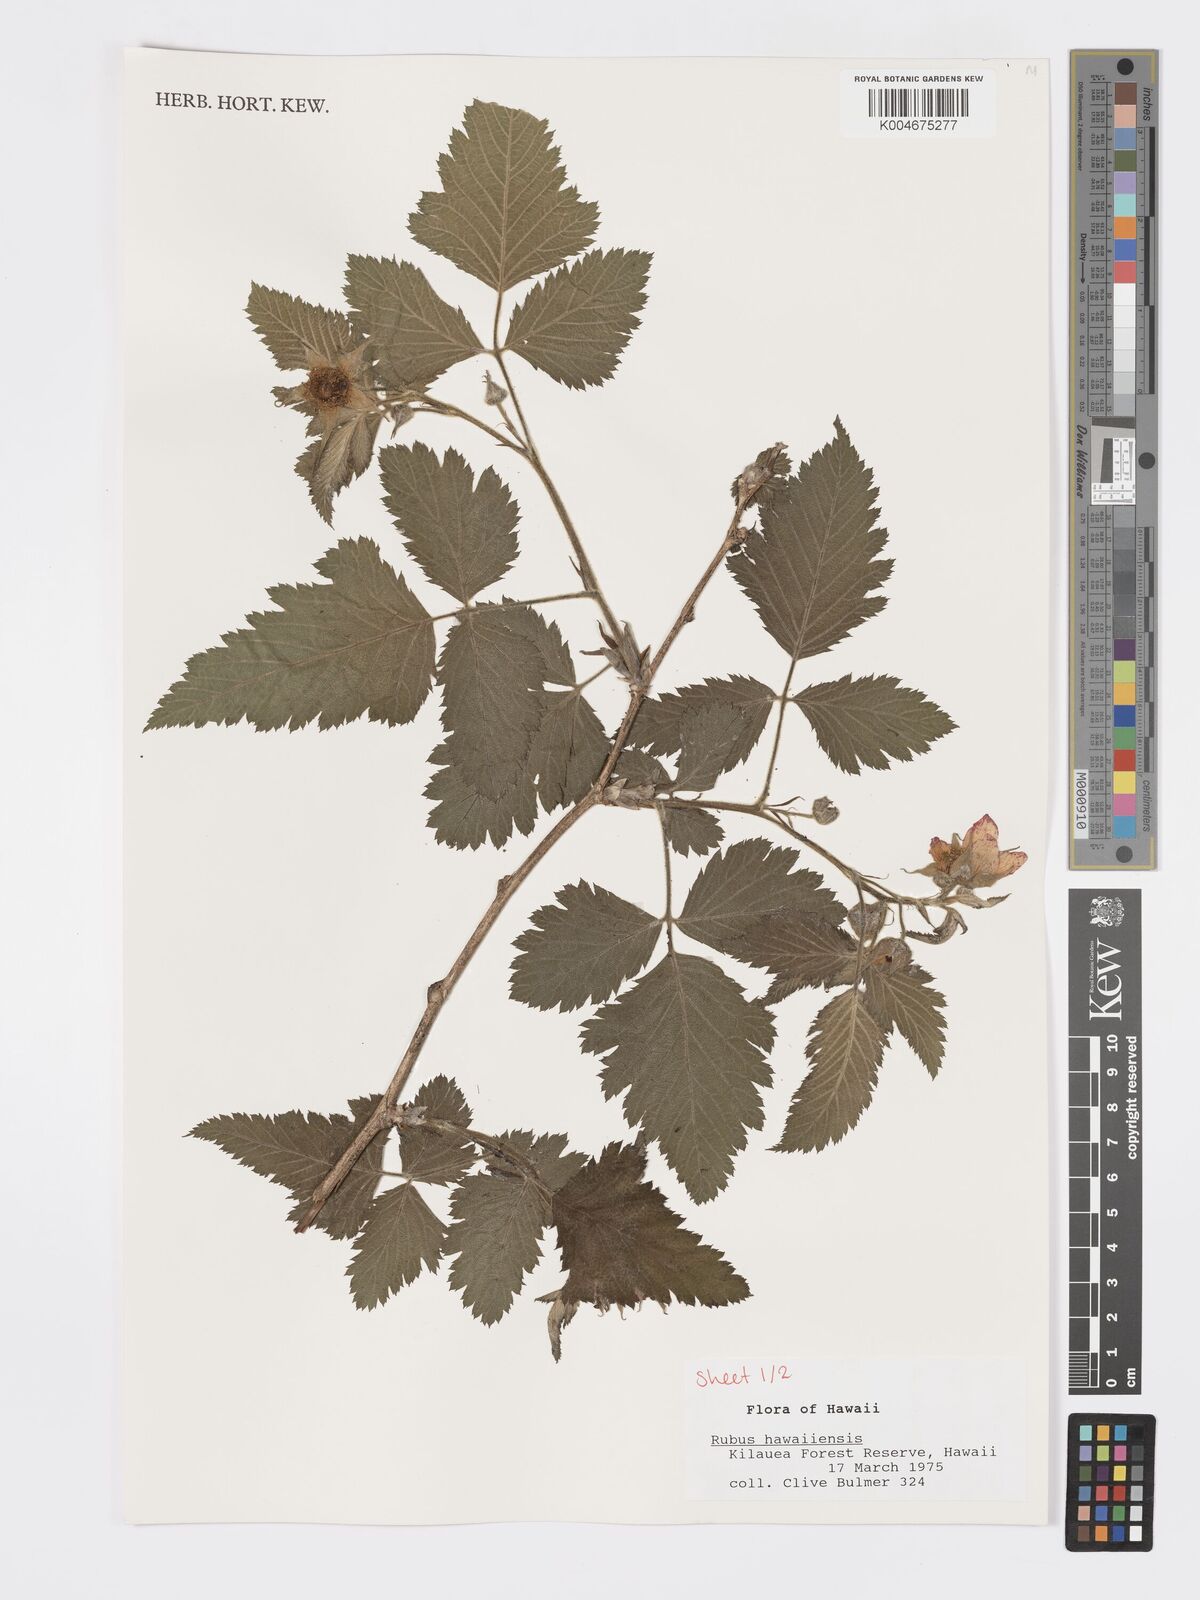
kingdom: Plantae
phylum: Tracheophyta
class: Magnoliopsida
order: Rosales
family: Rosaceae
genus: Rubus
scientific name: Rubus hawaiensis
